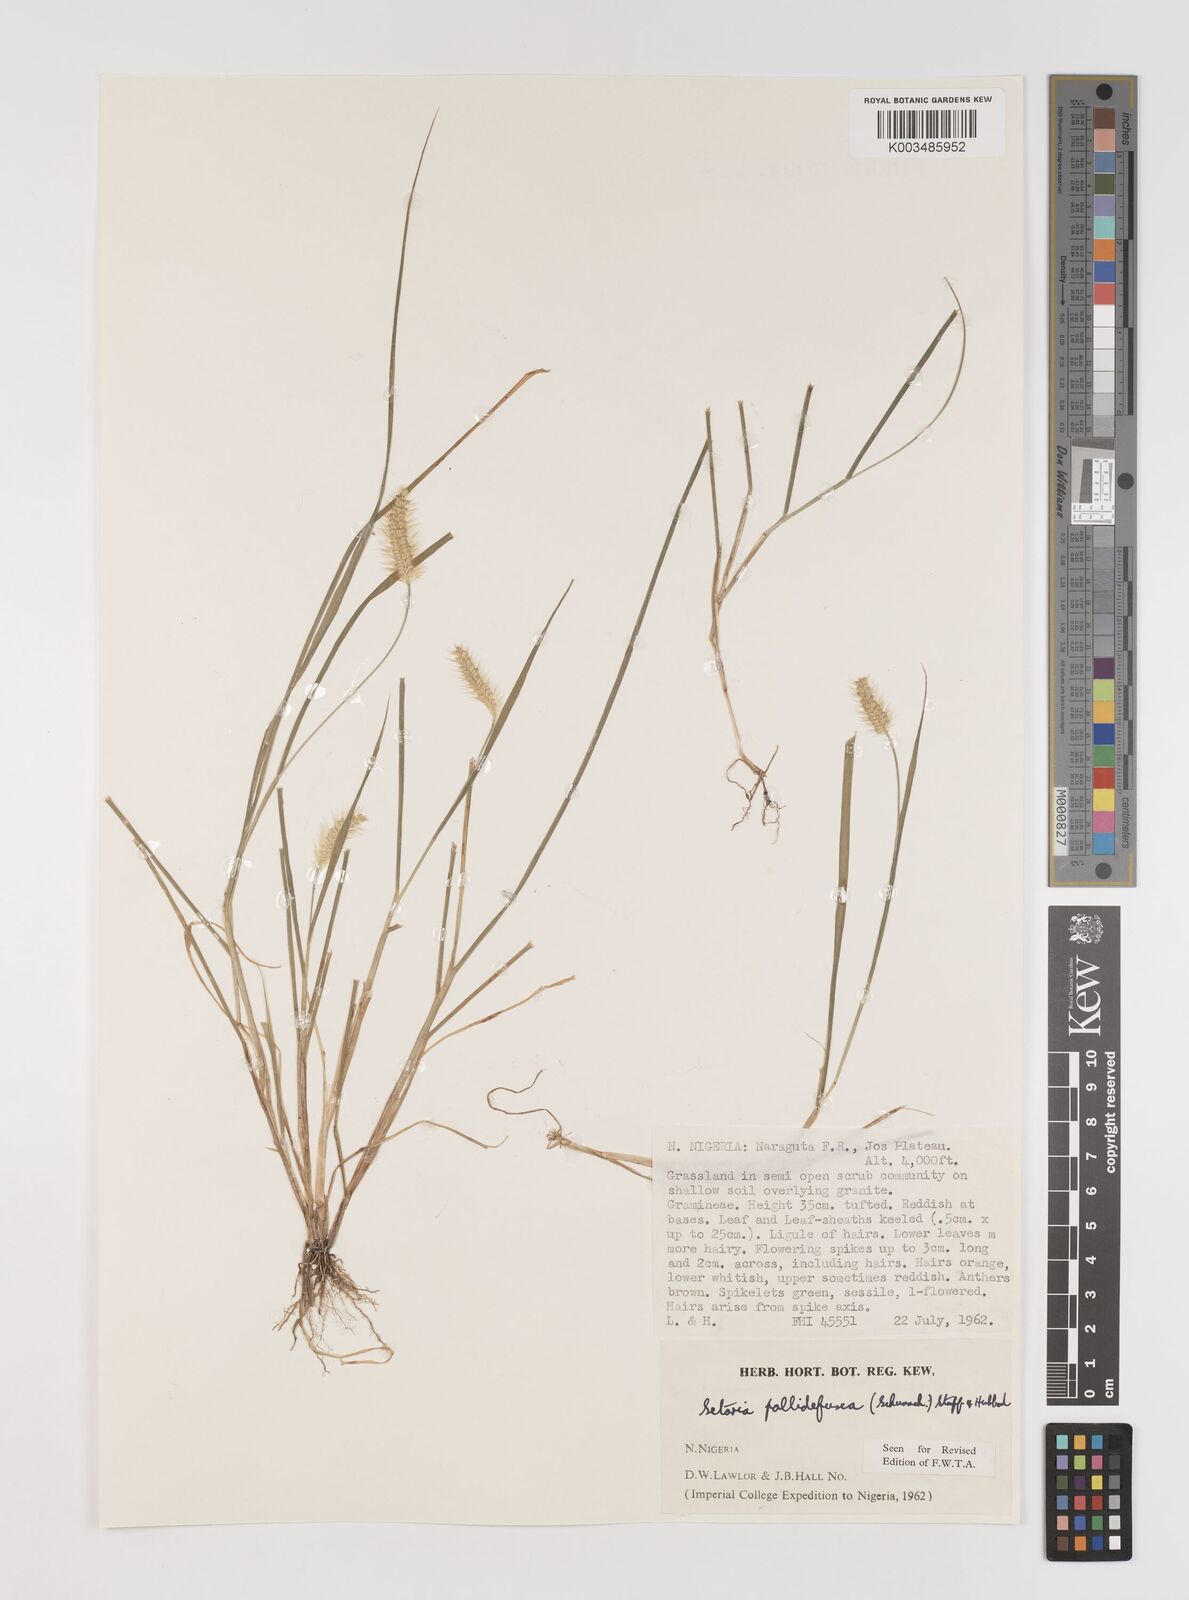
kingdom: Plantae
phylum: Tracheophyta
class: Liliopsida
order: Poales
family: Poaceae
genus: Setaria
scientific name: Setaria pumila
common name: Yellow bristle-grass
